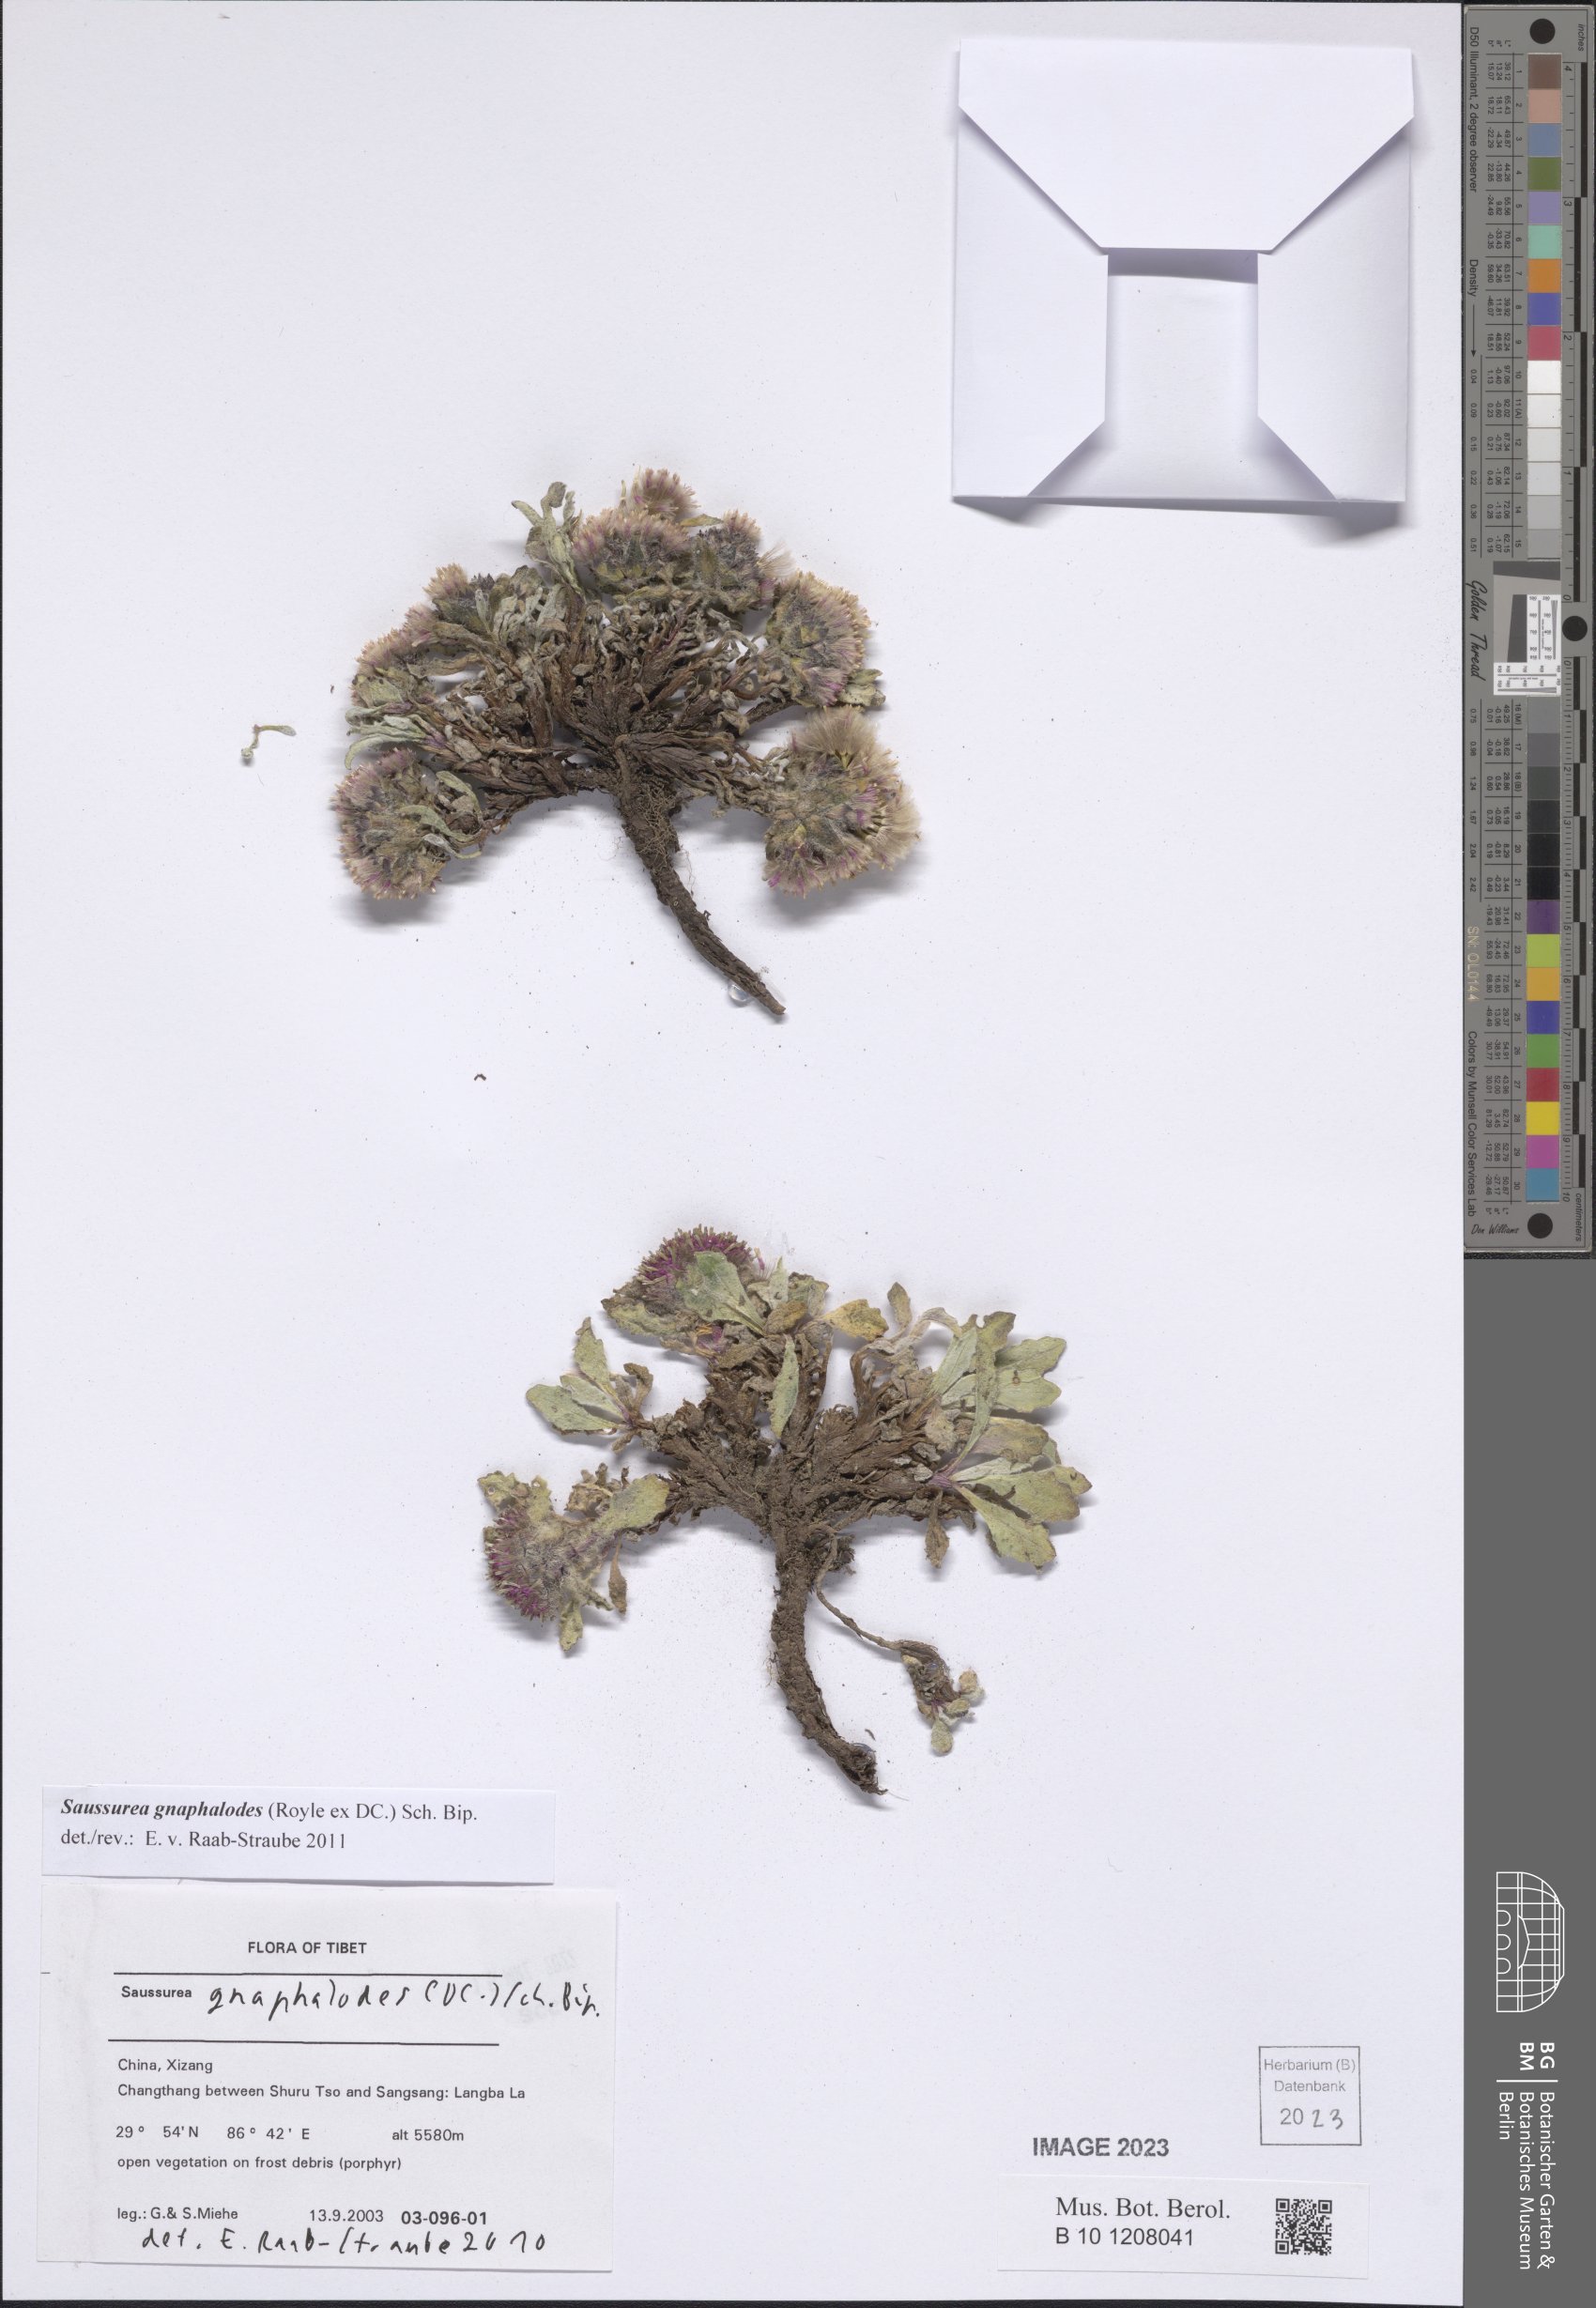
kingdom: Plantae
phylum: Tracheophyta
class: Magnoliopsida
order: Asterales
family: Asteraceae
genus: Saussurea
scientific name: Saussurea gnaphalodes
